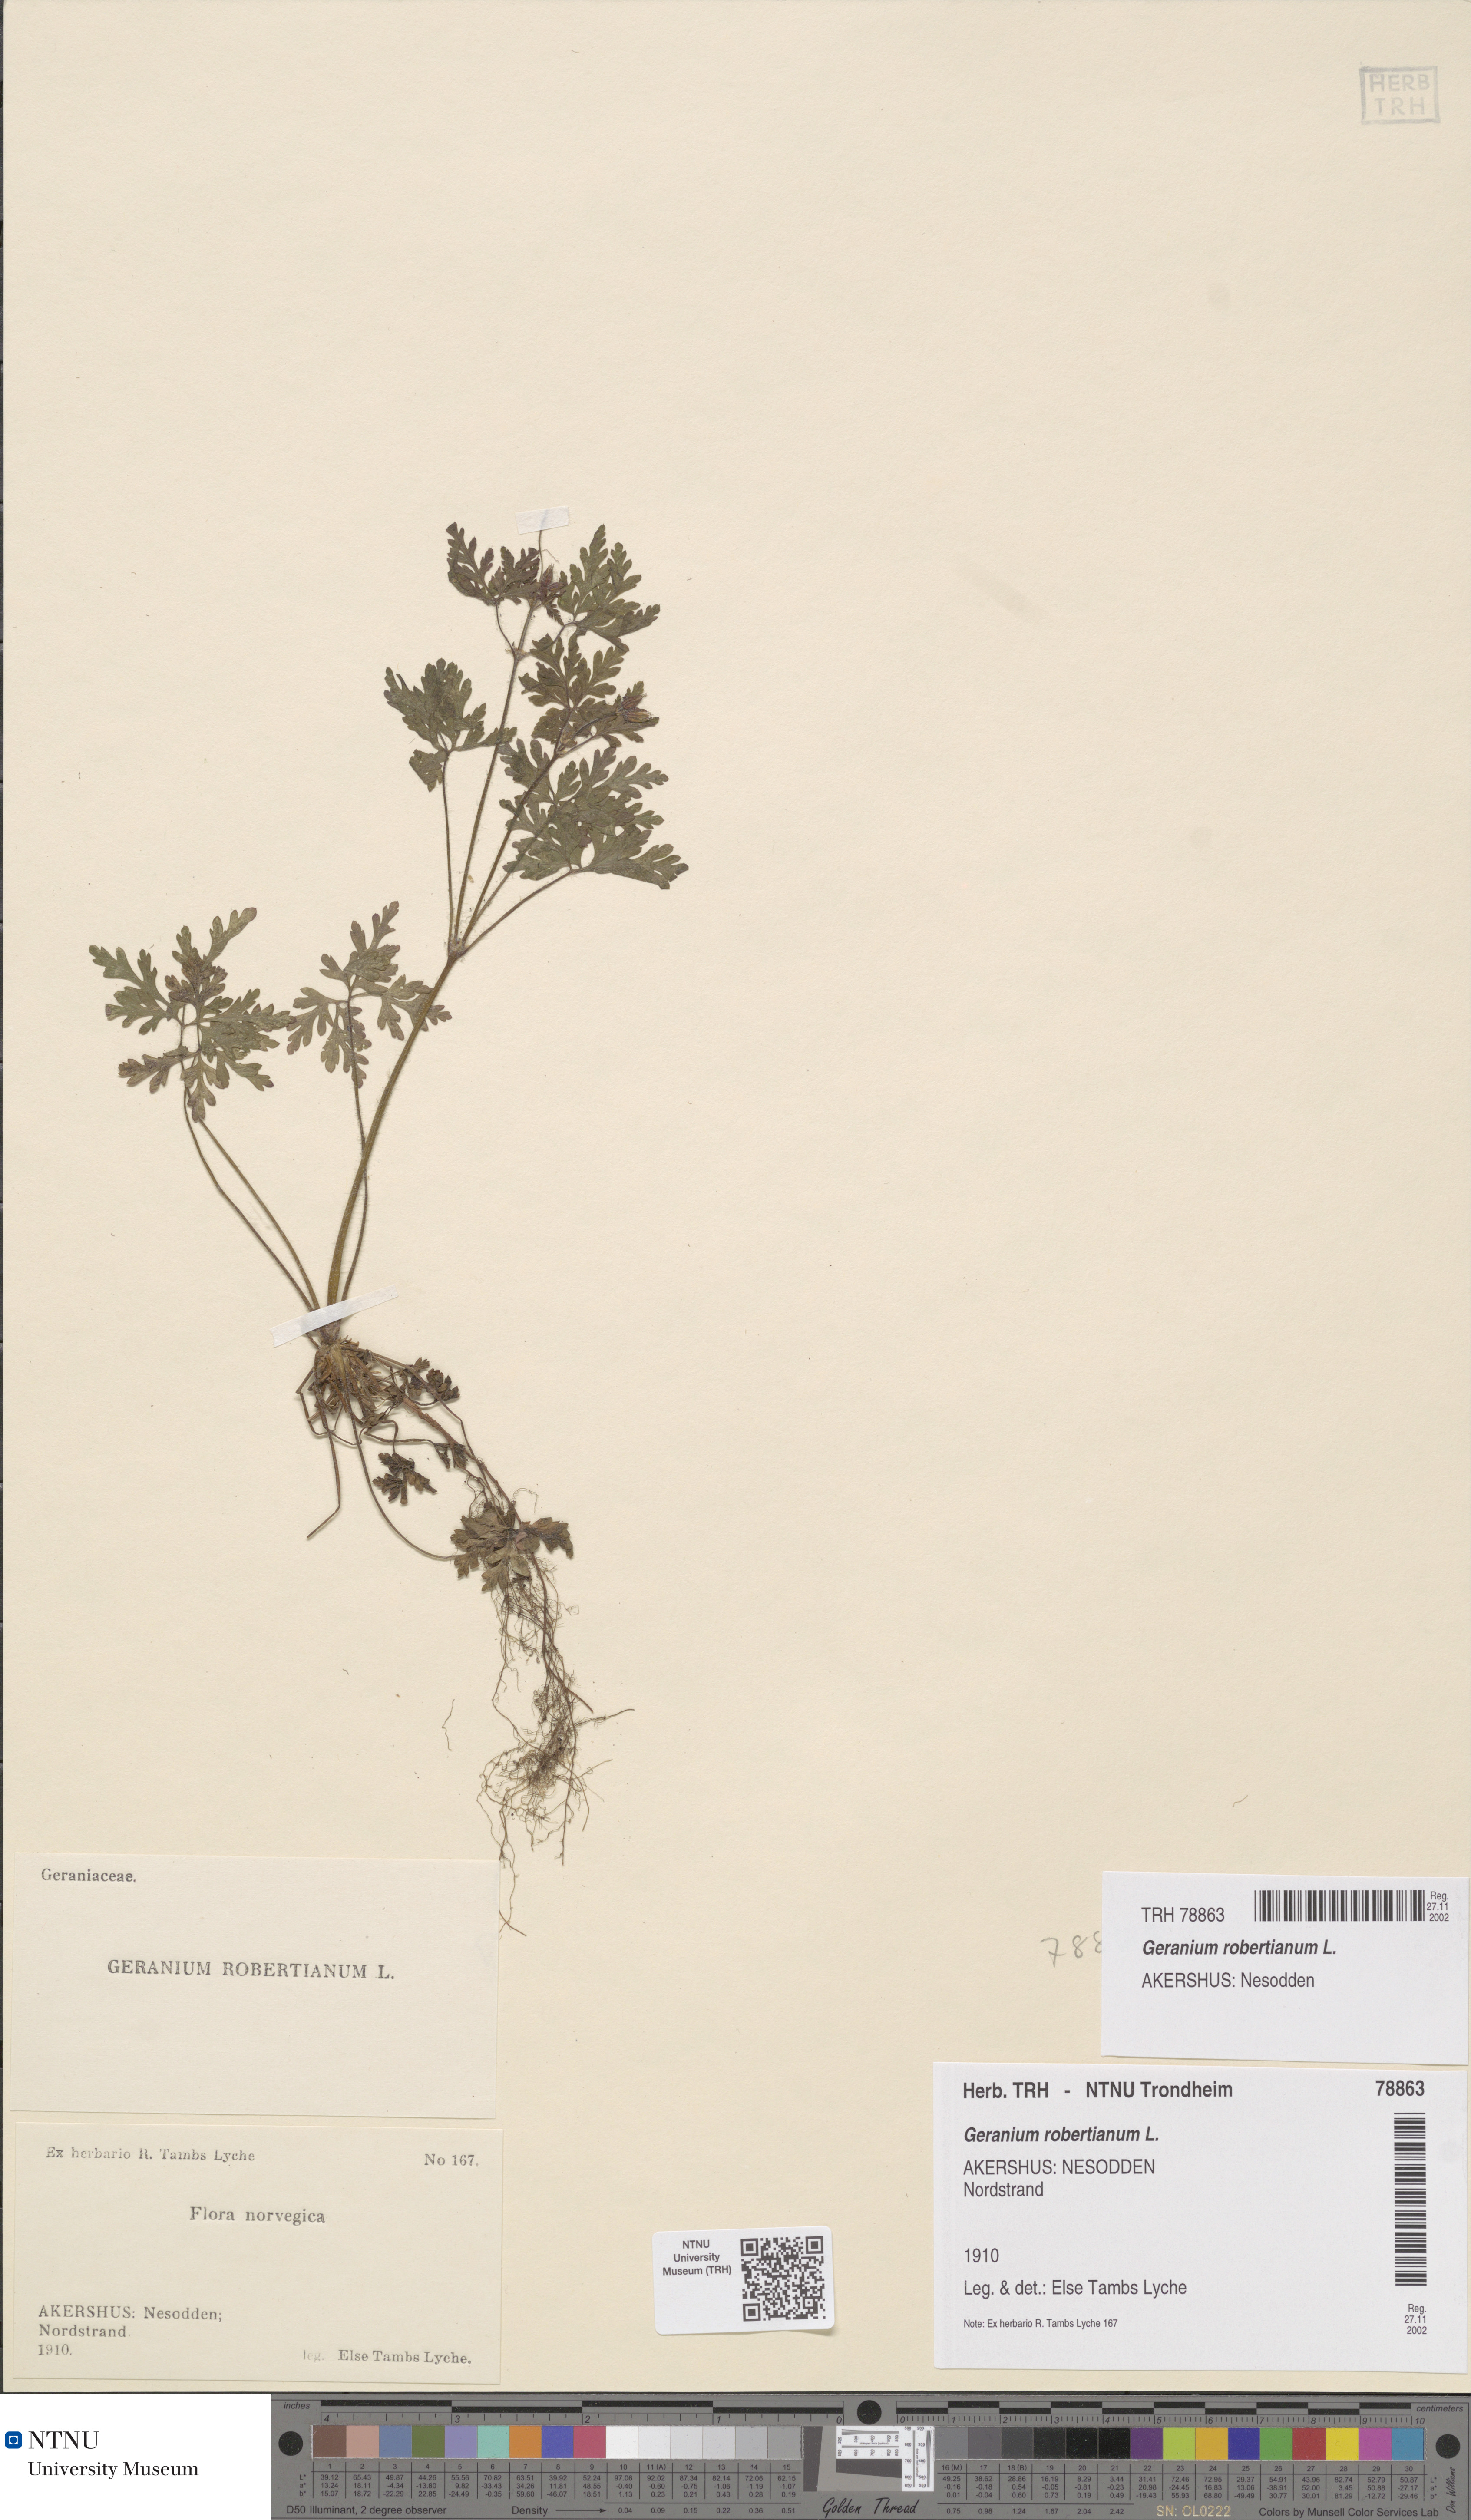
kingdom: Plantae
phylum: Tracheophyta
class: Magnoliopsida
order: Geraniales
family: Geraniaceae
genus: Geranium
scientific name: Geranium robertianum
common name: Herb-robert
